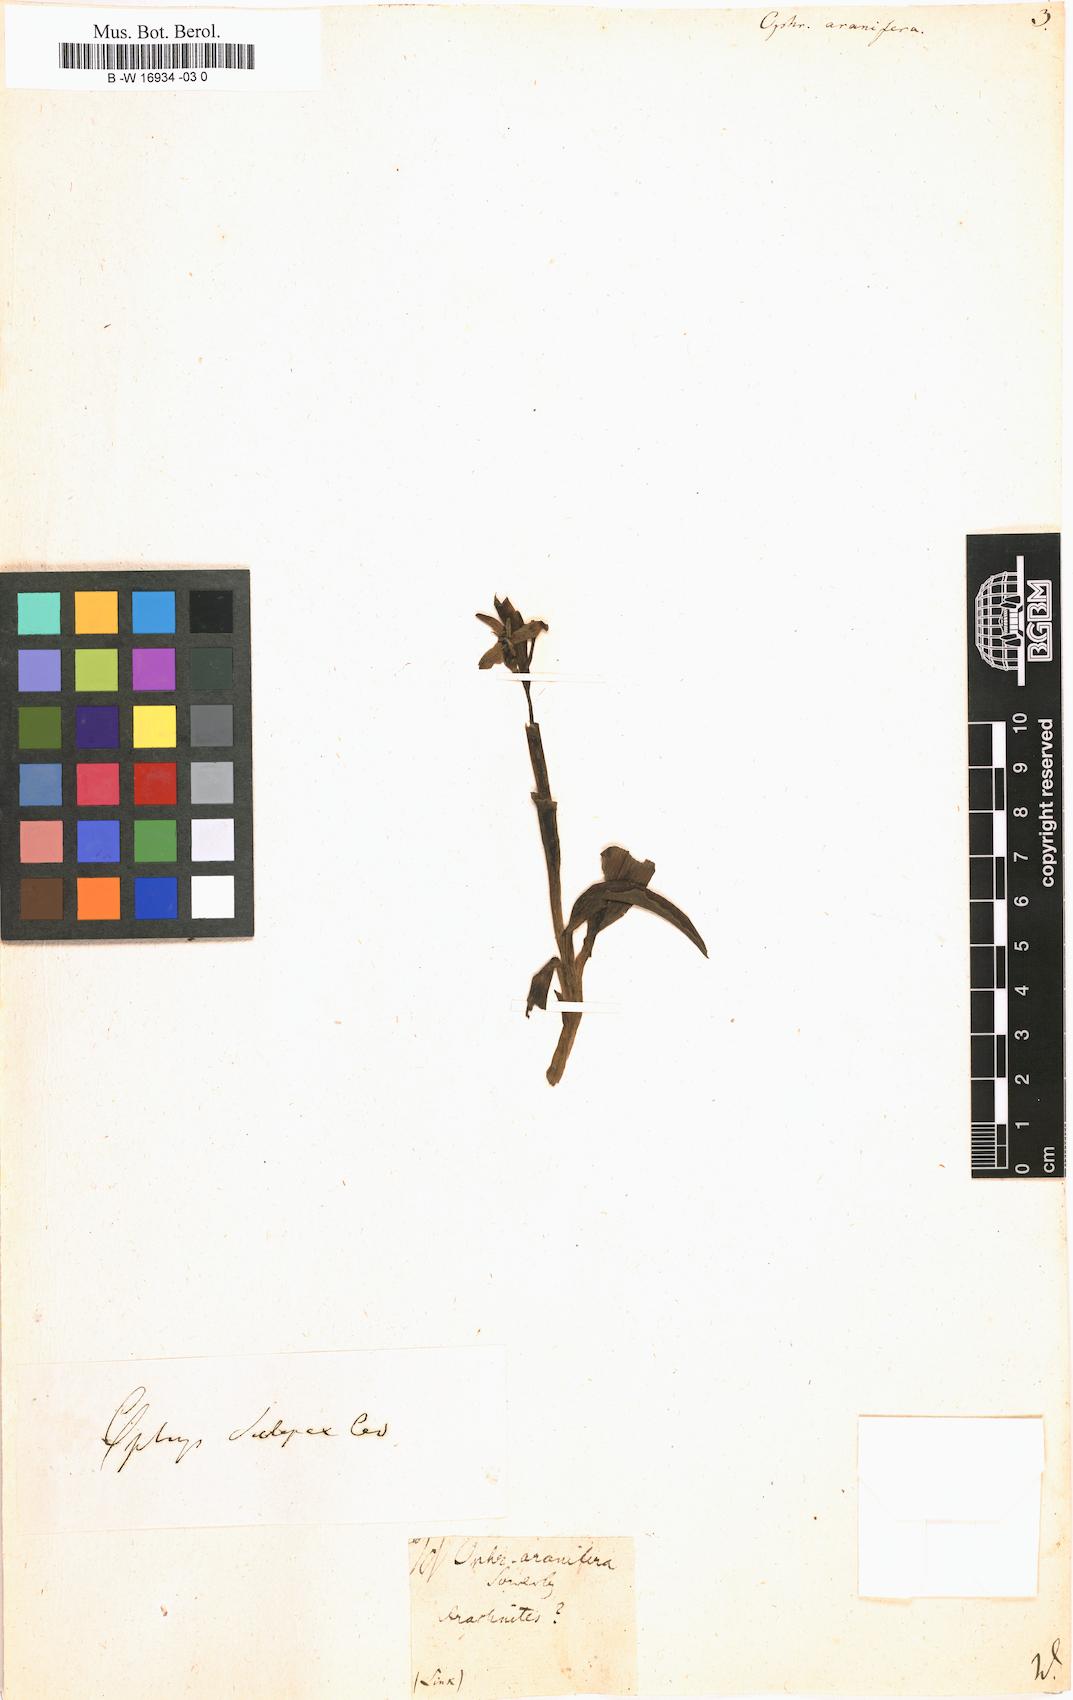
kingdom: Plantae
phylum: Tracheophyta
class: Liliopsida
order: Asparagales
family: Orchidaceae
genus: Ophrys
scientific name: Ophrys sphegodes
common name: Early spider-orchid
